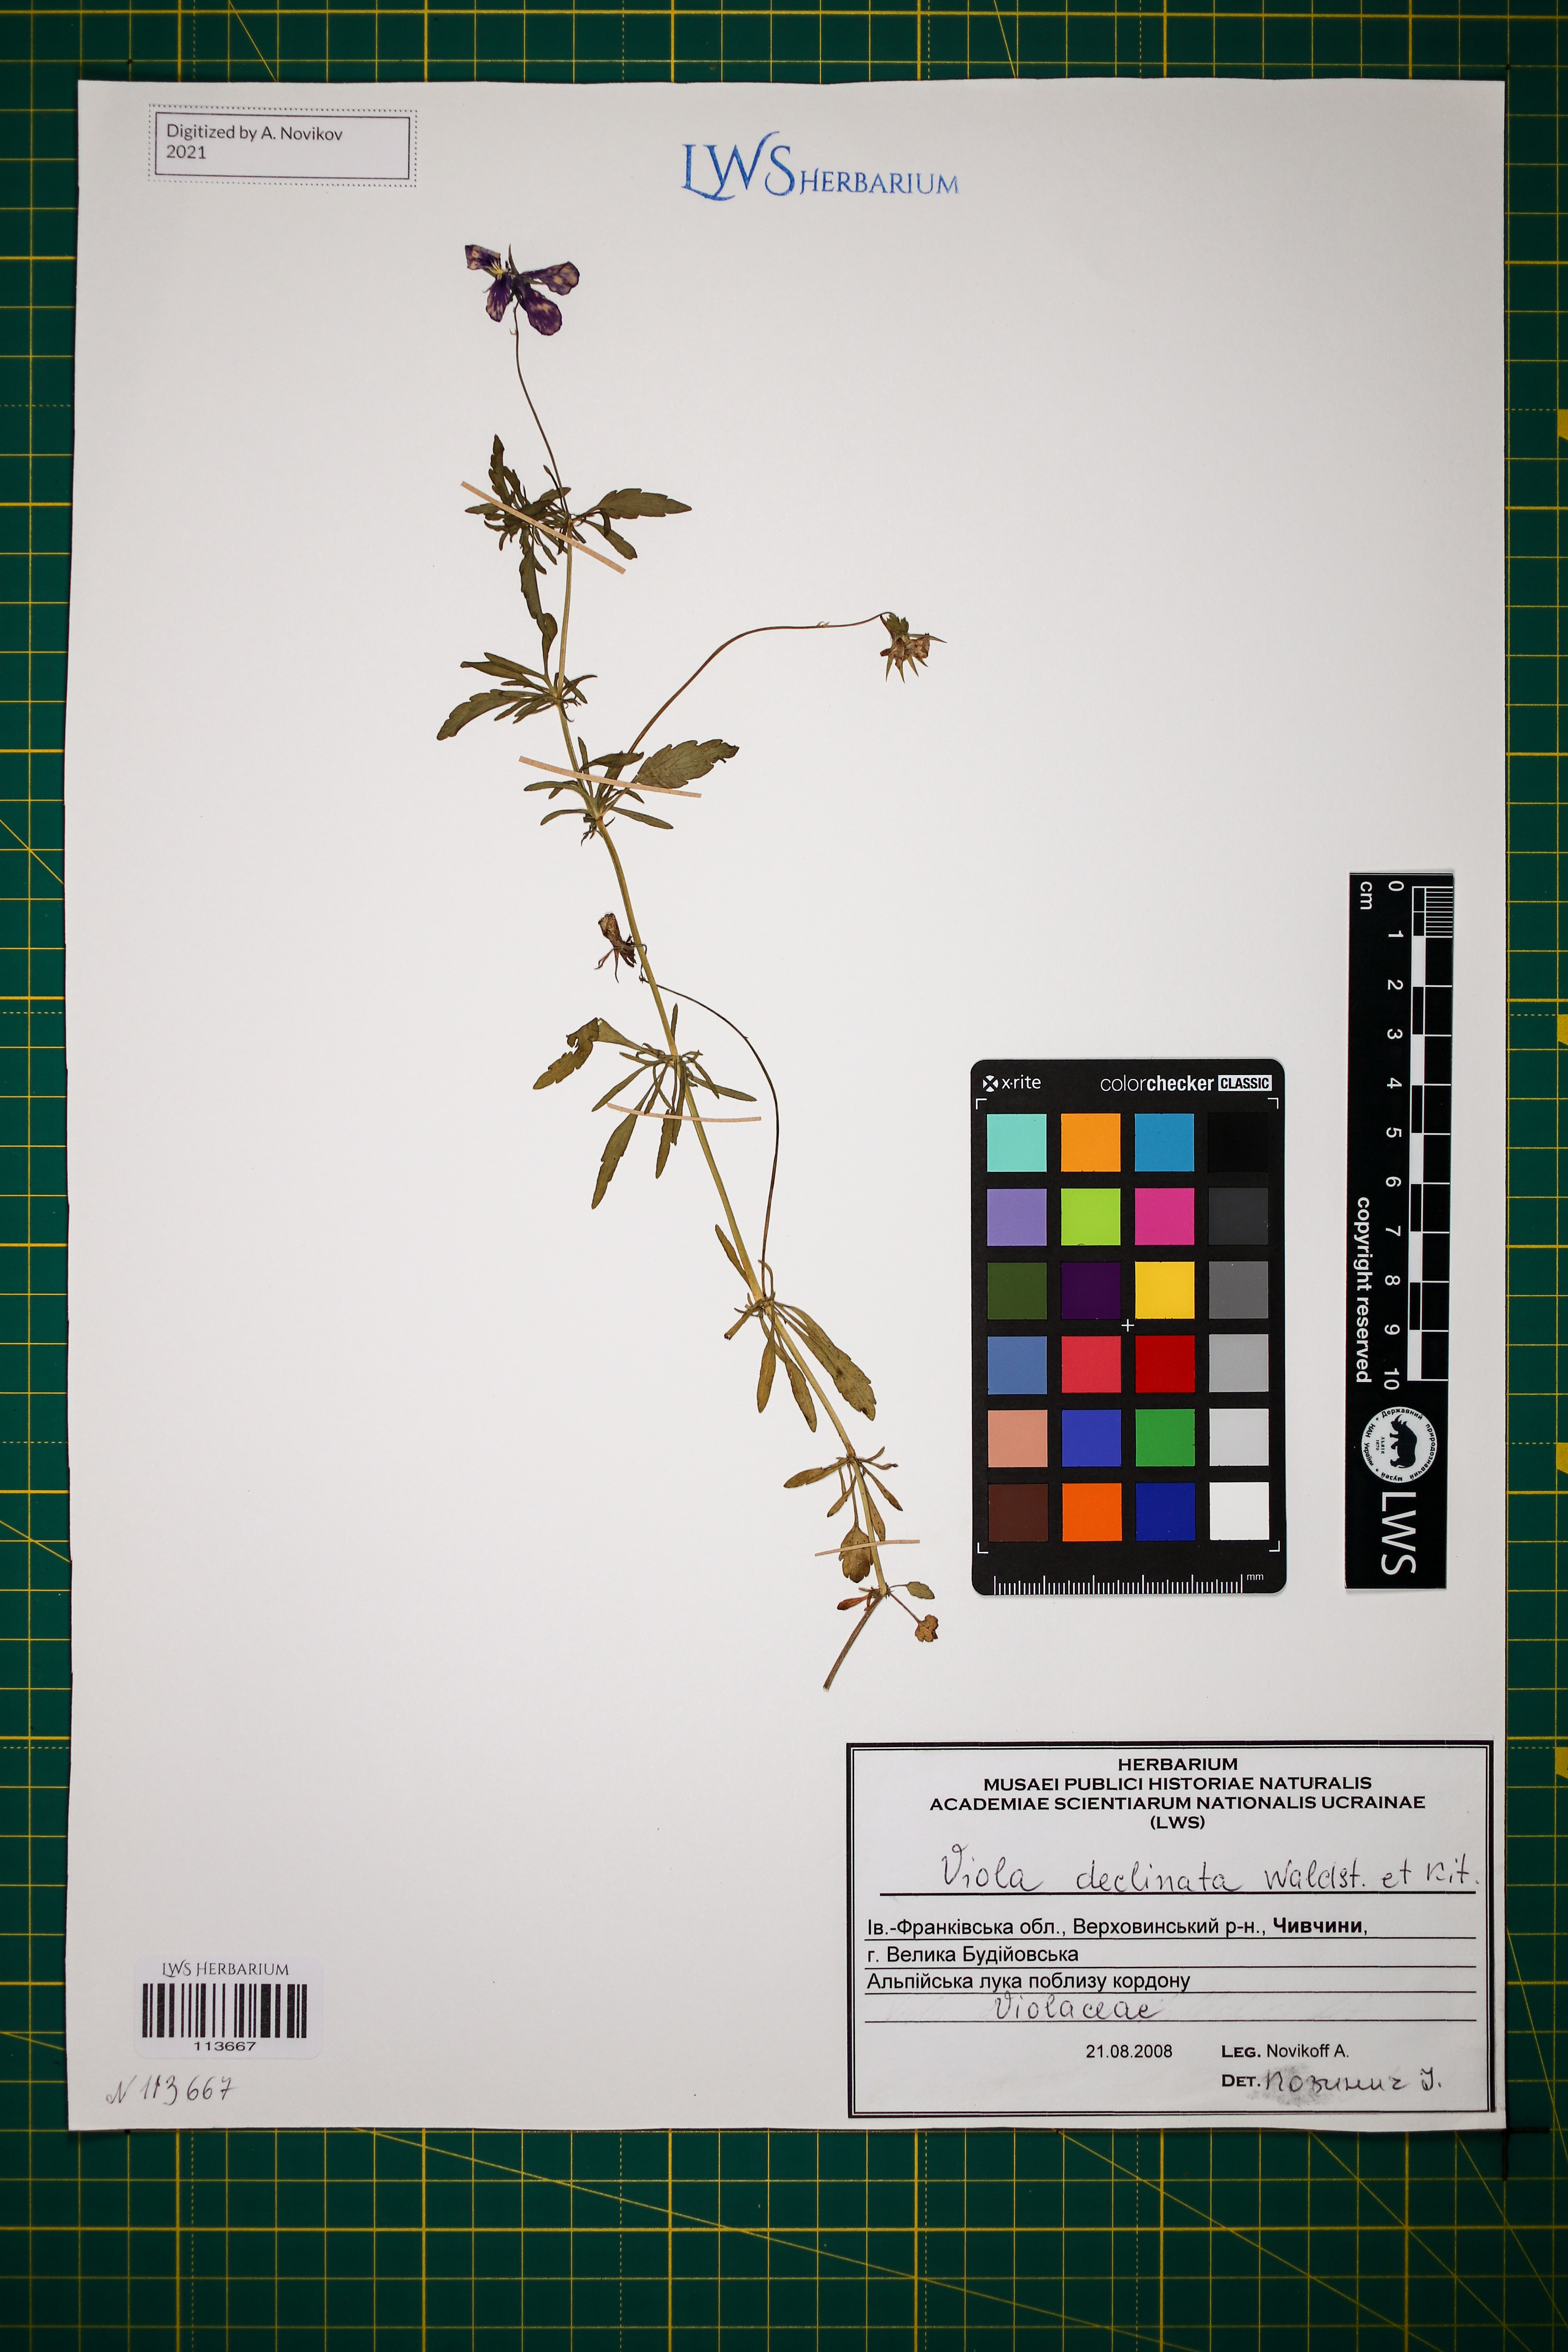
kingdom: Plantae
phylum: Tracheophyta
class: Magnoliopsida
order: Malpighiales
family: Violaceae
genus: Viola
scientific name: Viola declinata
